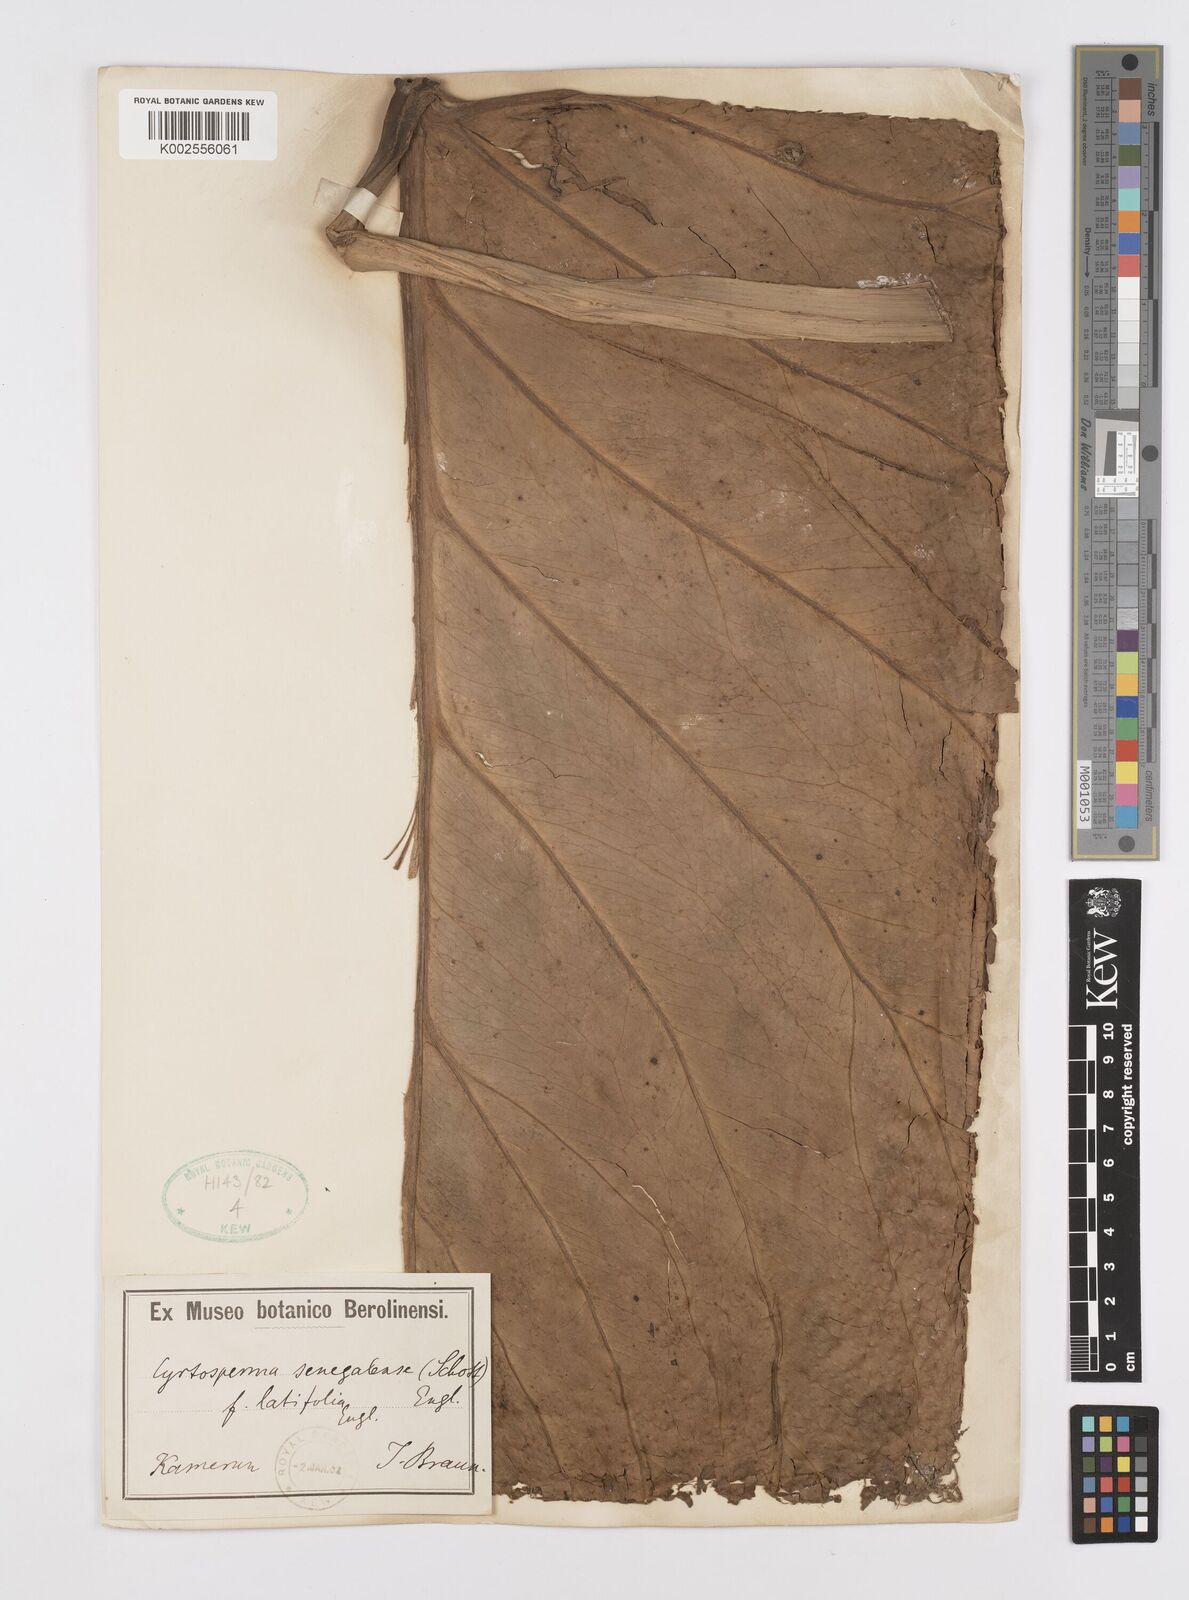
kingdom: Plantae
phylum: Tracheophyta
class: Liliopsida
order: Alismatales
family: Araceae
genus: Lasimorpha
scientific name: Lasimorpha senegalensis
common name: Swamp arum
